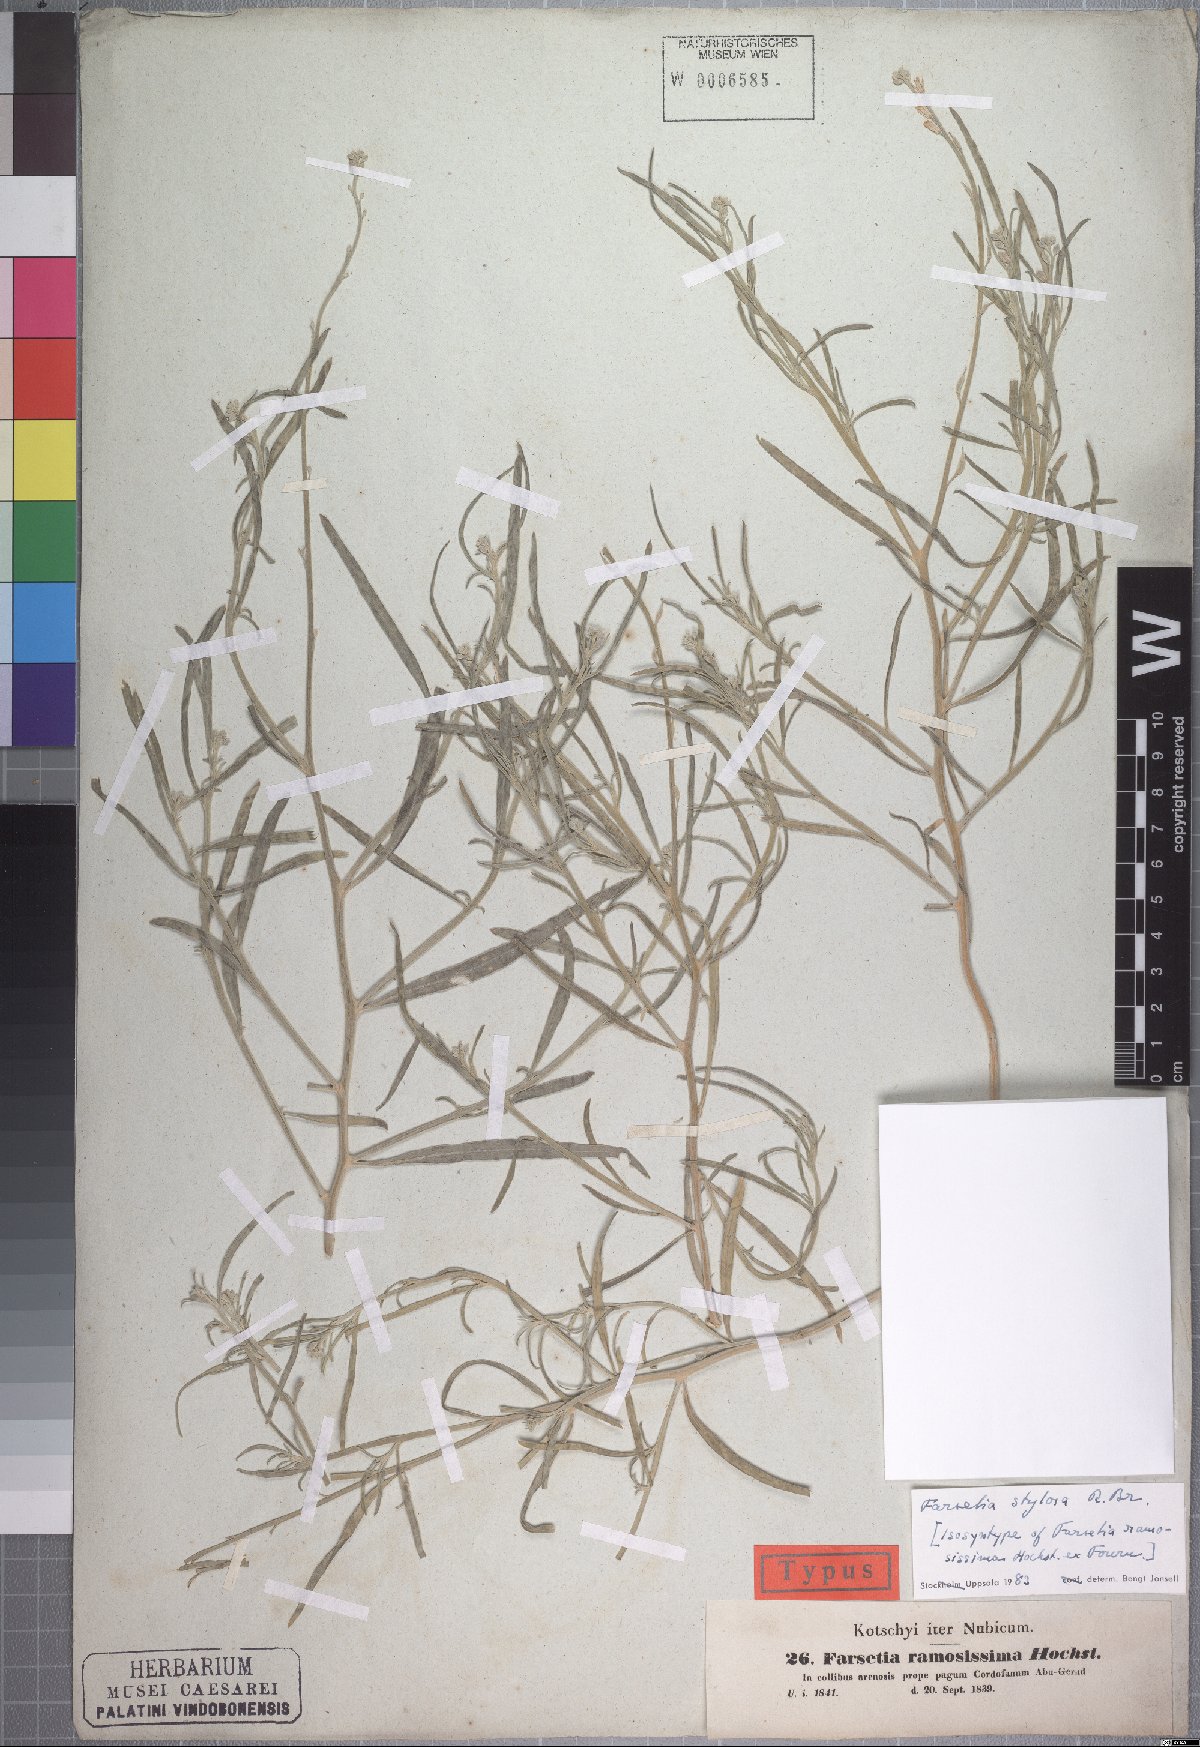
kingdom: Plantae
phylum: Tracheophyta
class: Magnoliopsida
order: Brassicales
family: Brassicaceae
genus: Farsetia
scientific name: Farsetia stylosa
